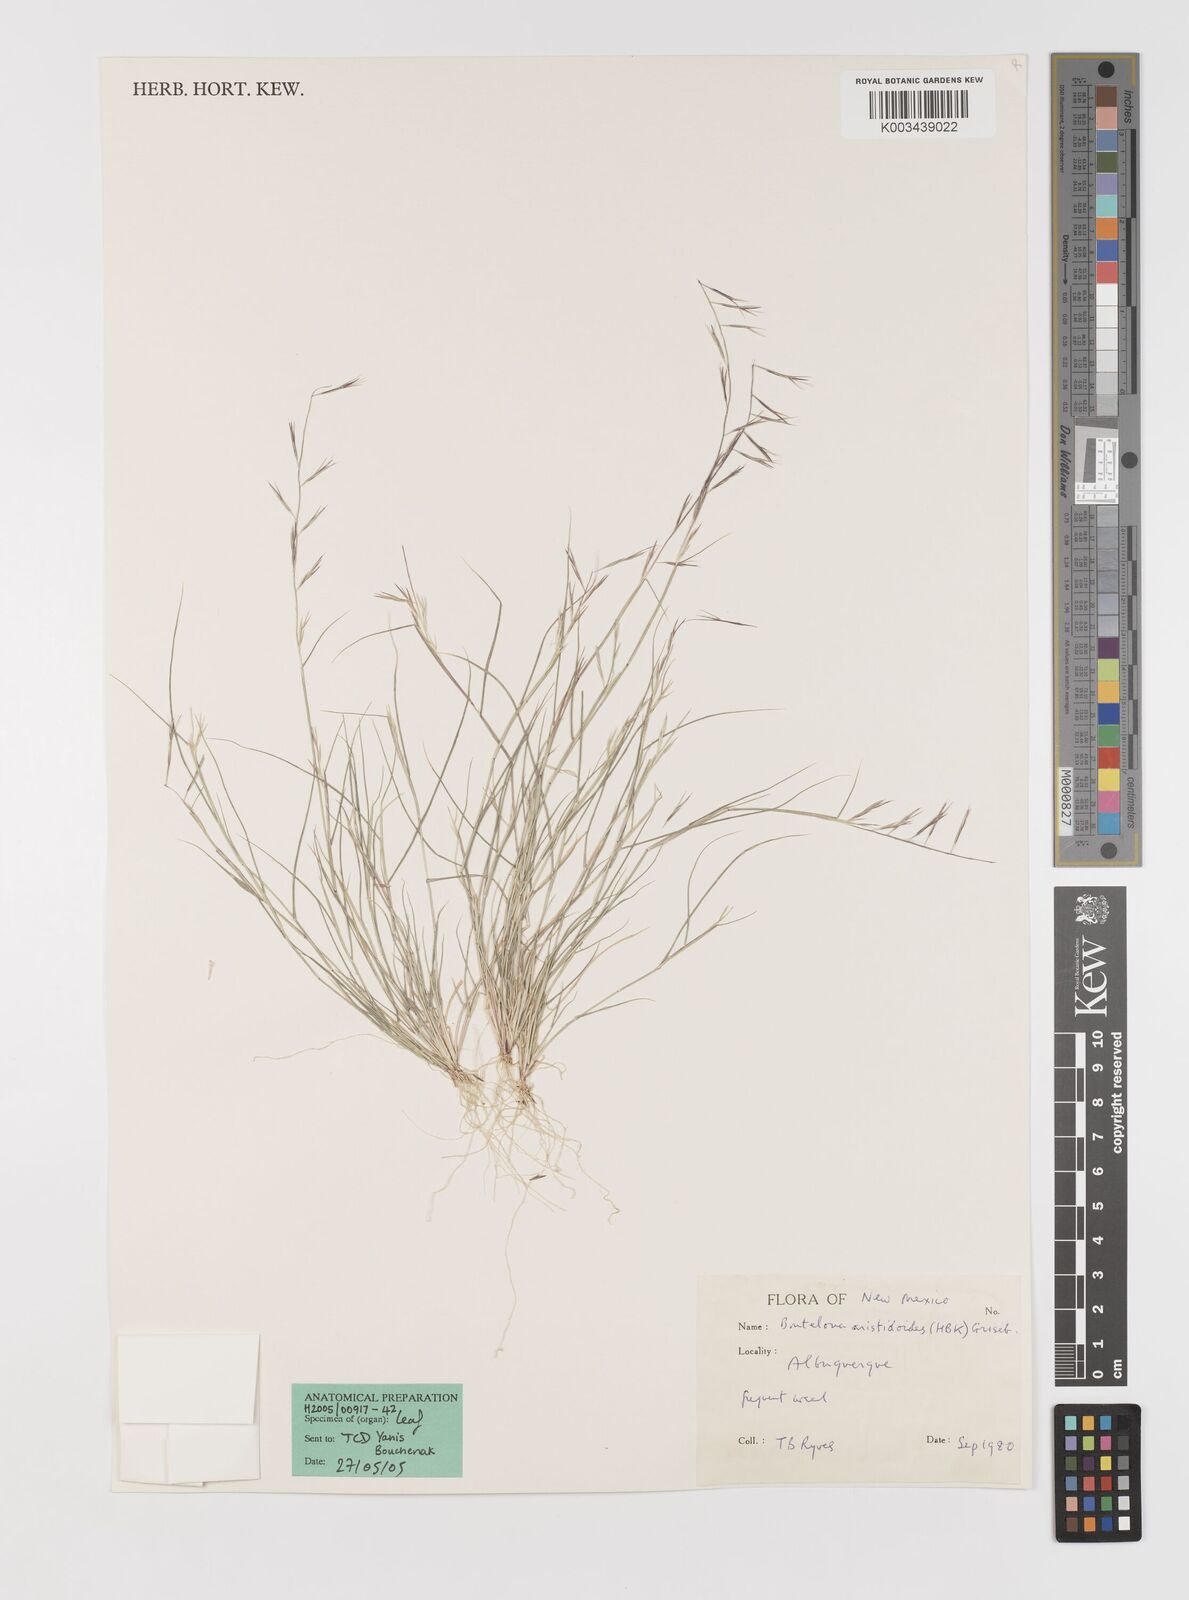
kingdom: Plantae
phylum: Tracheophyta
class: Liliopsida
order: Poales
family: Poaceae
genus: Bouteloua
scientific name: Bouteloua aristidoides
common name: Needle grama
